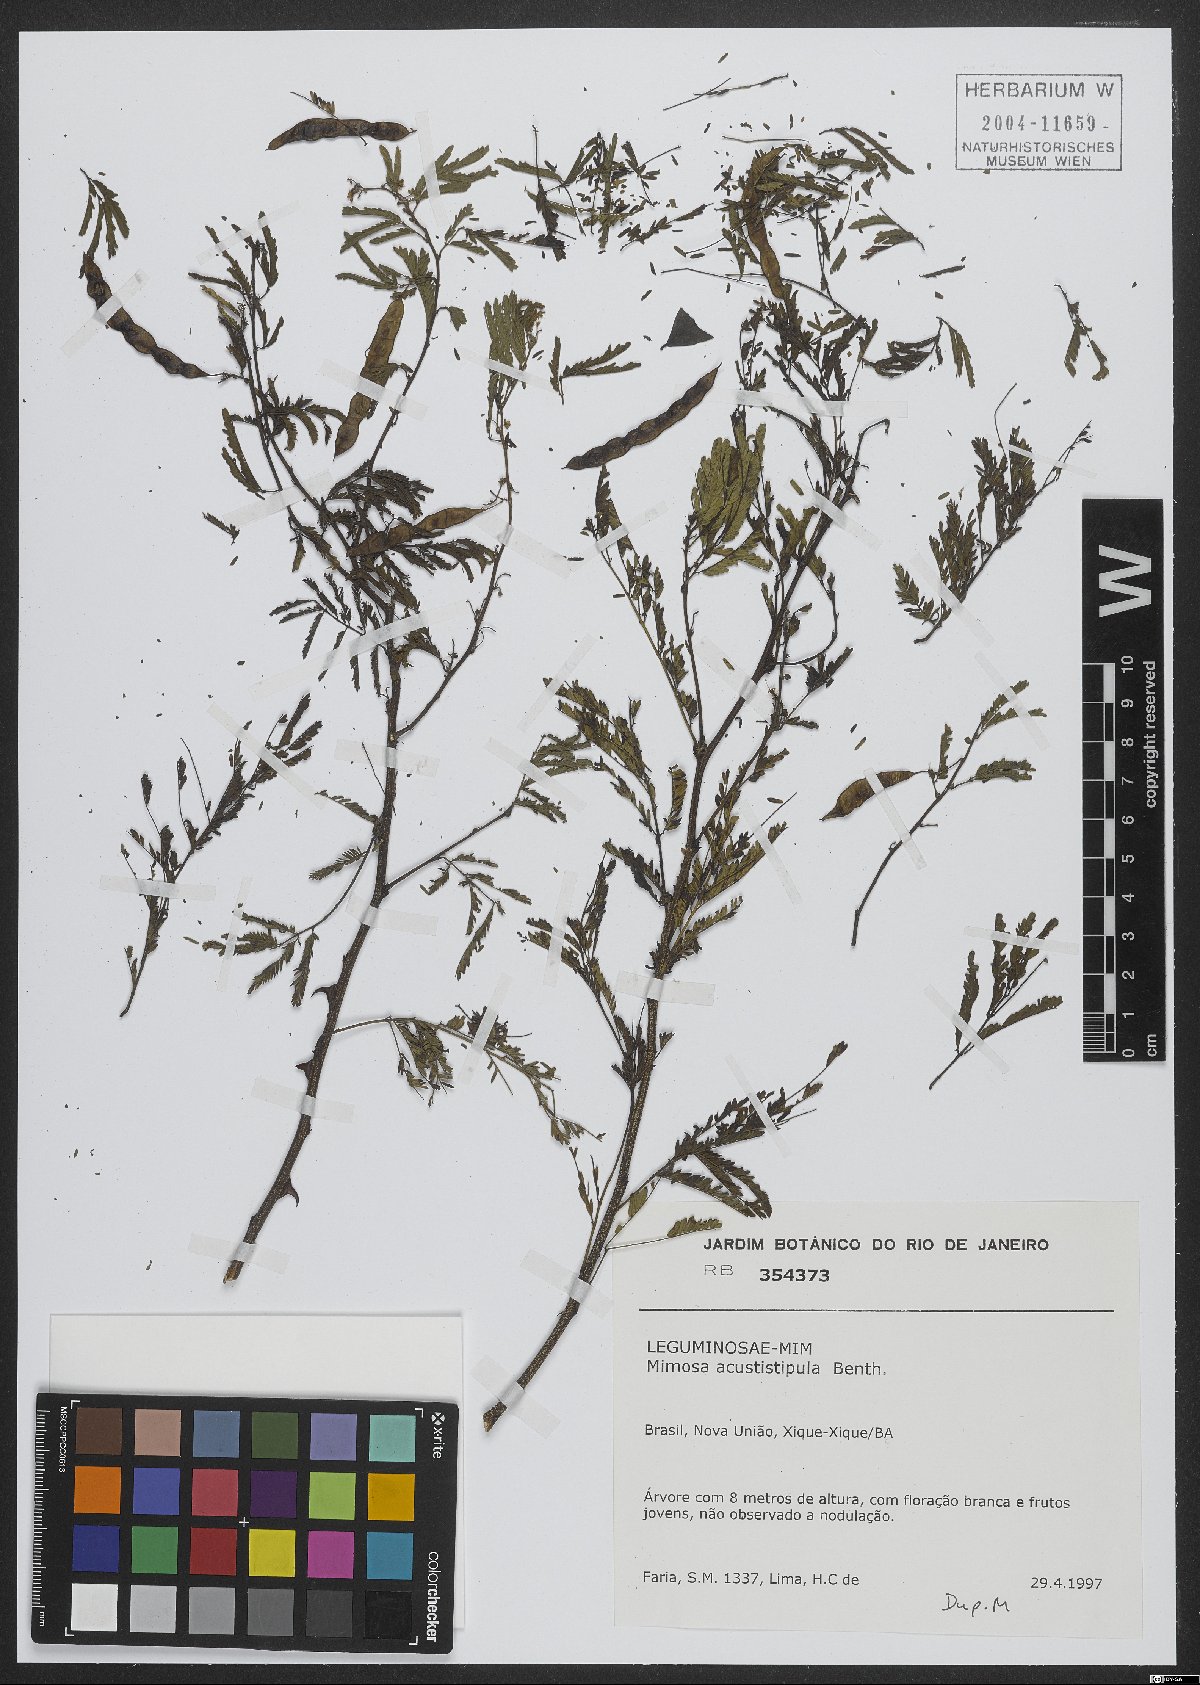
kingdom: Plantae
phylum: Tracheophyta
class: Magnoliopsida
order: Fabales
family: Fabaceae
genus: Mimosa
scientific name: Mimosa acutistipula
